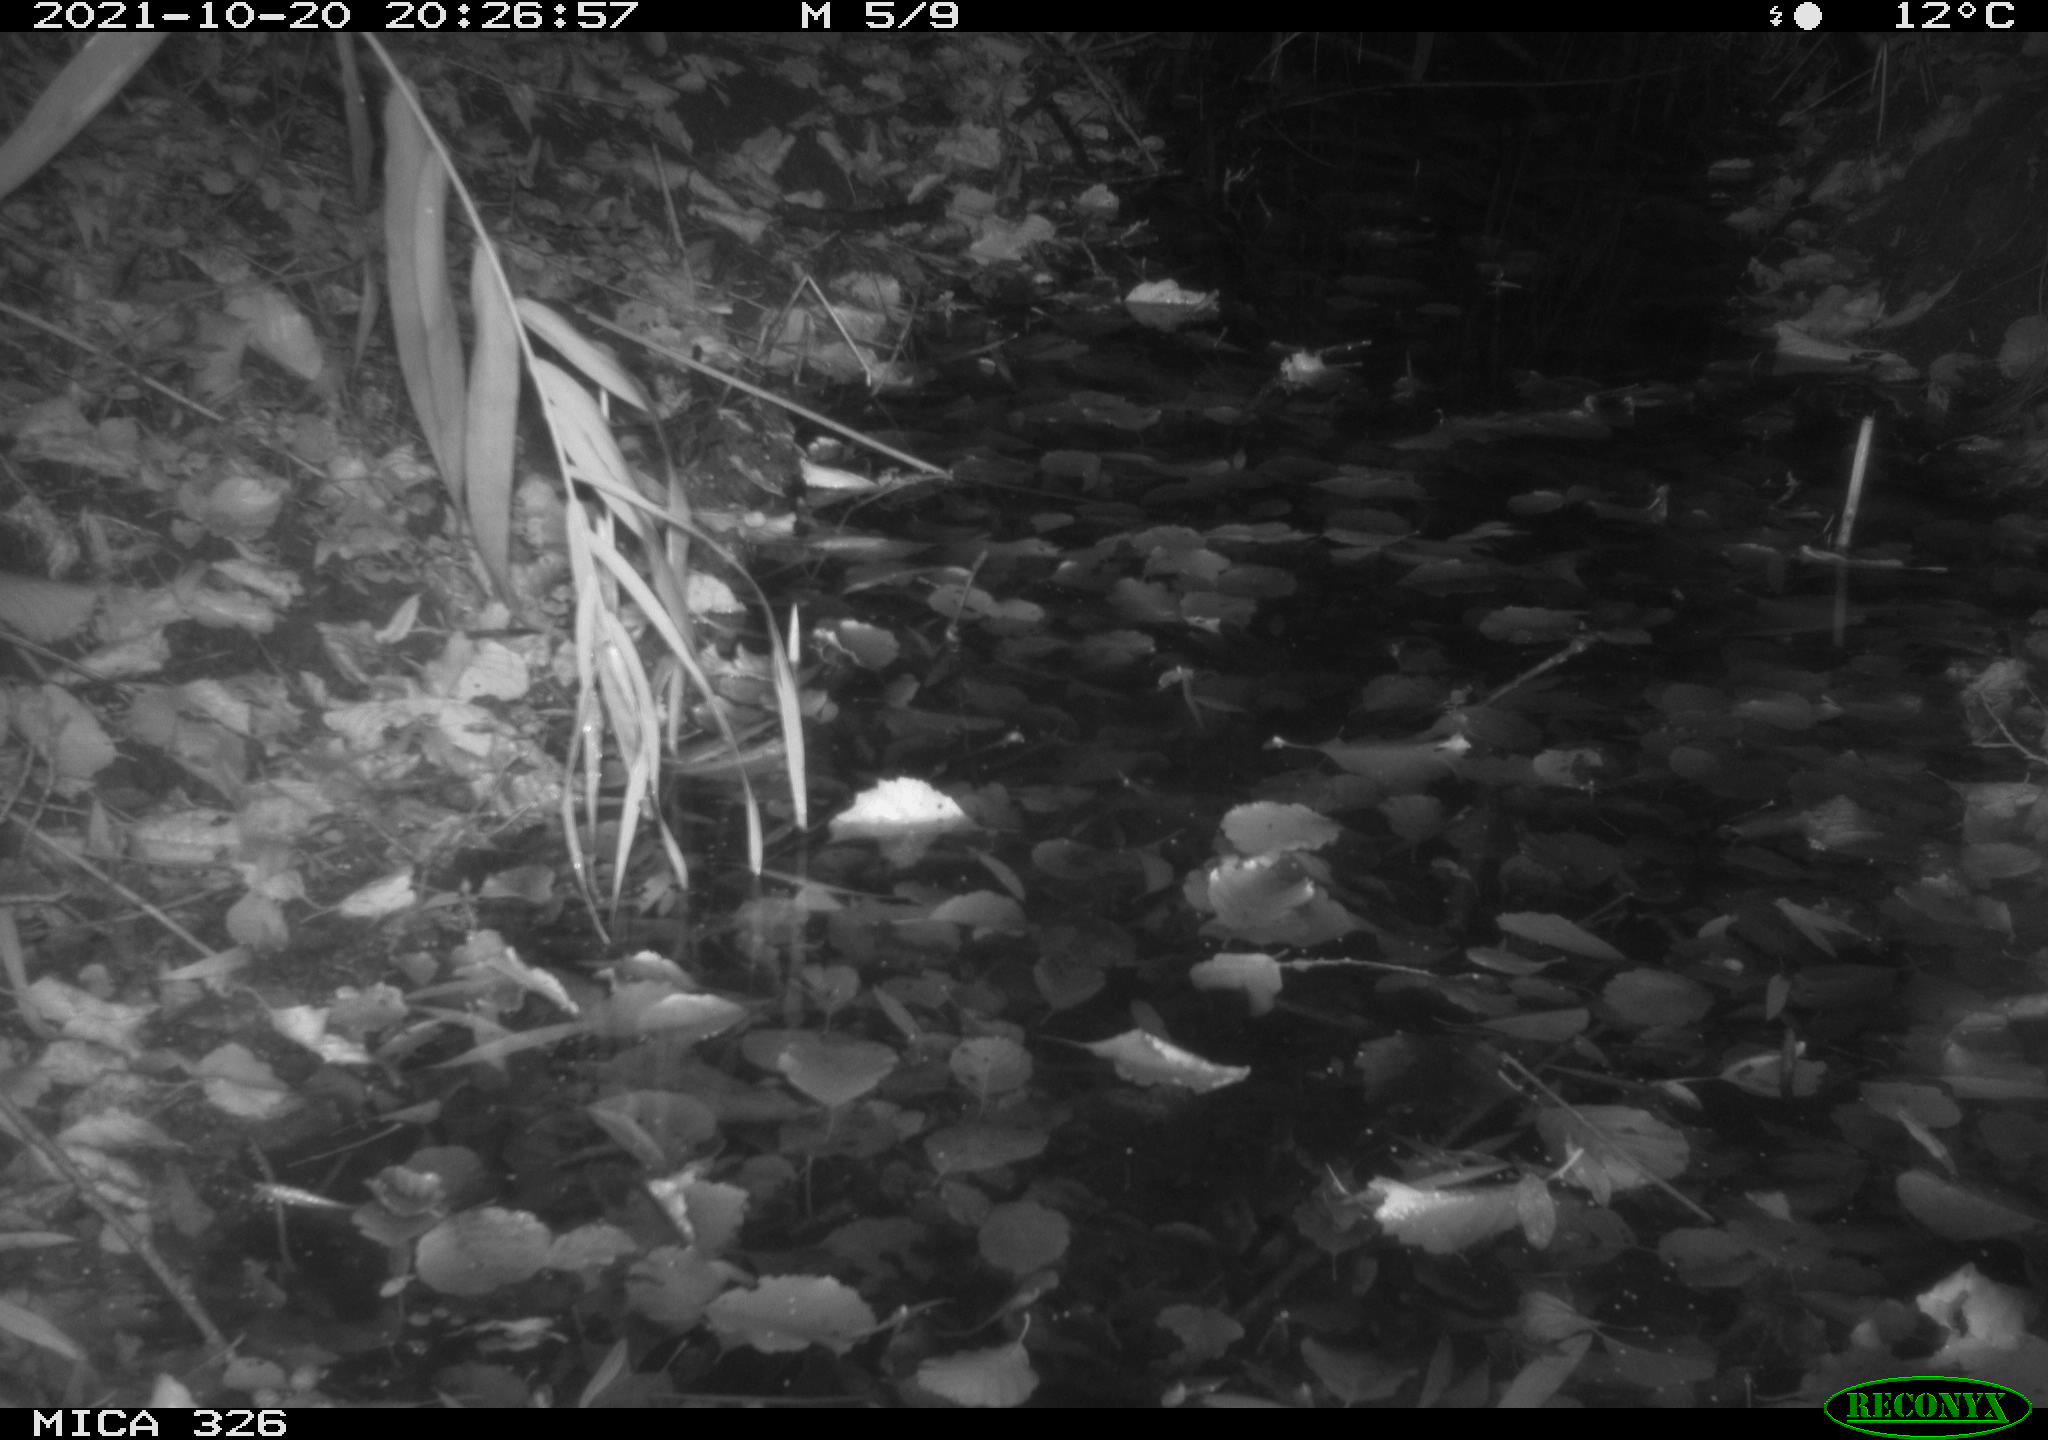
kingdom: Animalia
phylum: Chordata
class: Mammalia
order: Rodentia
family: Muridae
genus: Rattus
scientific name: Rattus norvegicus
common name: Brown rat
